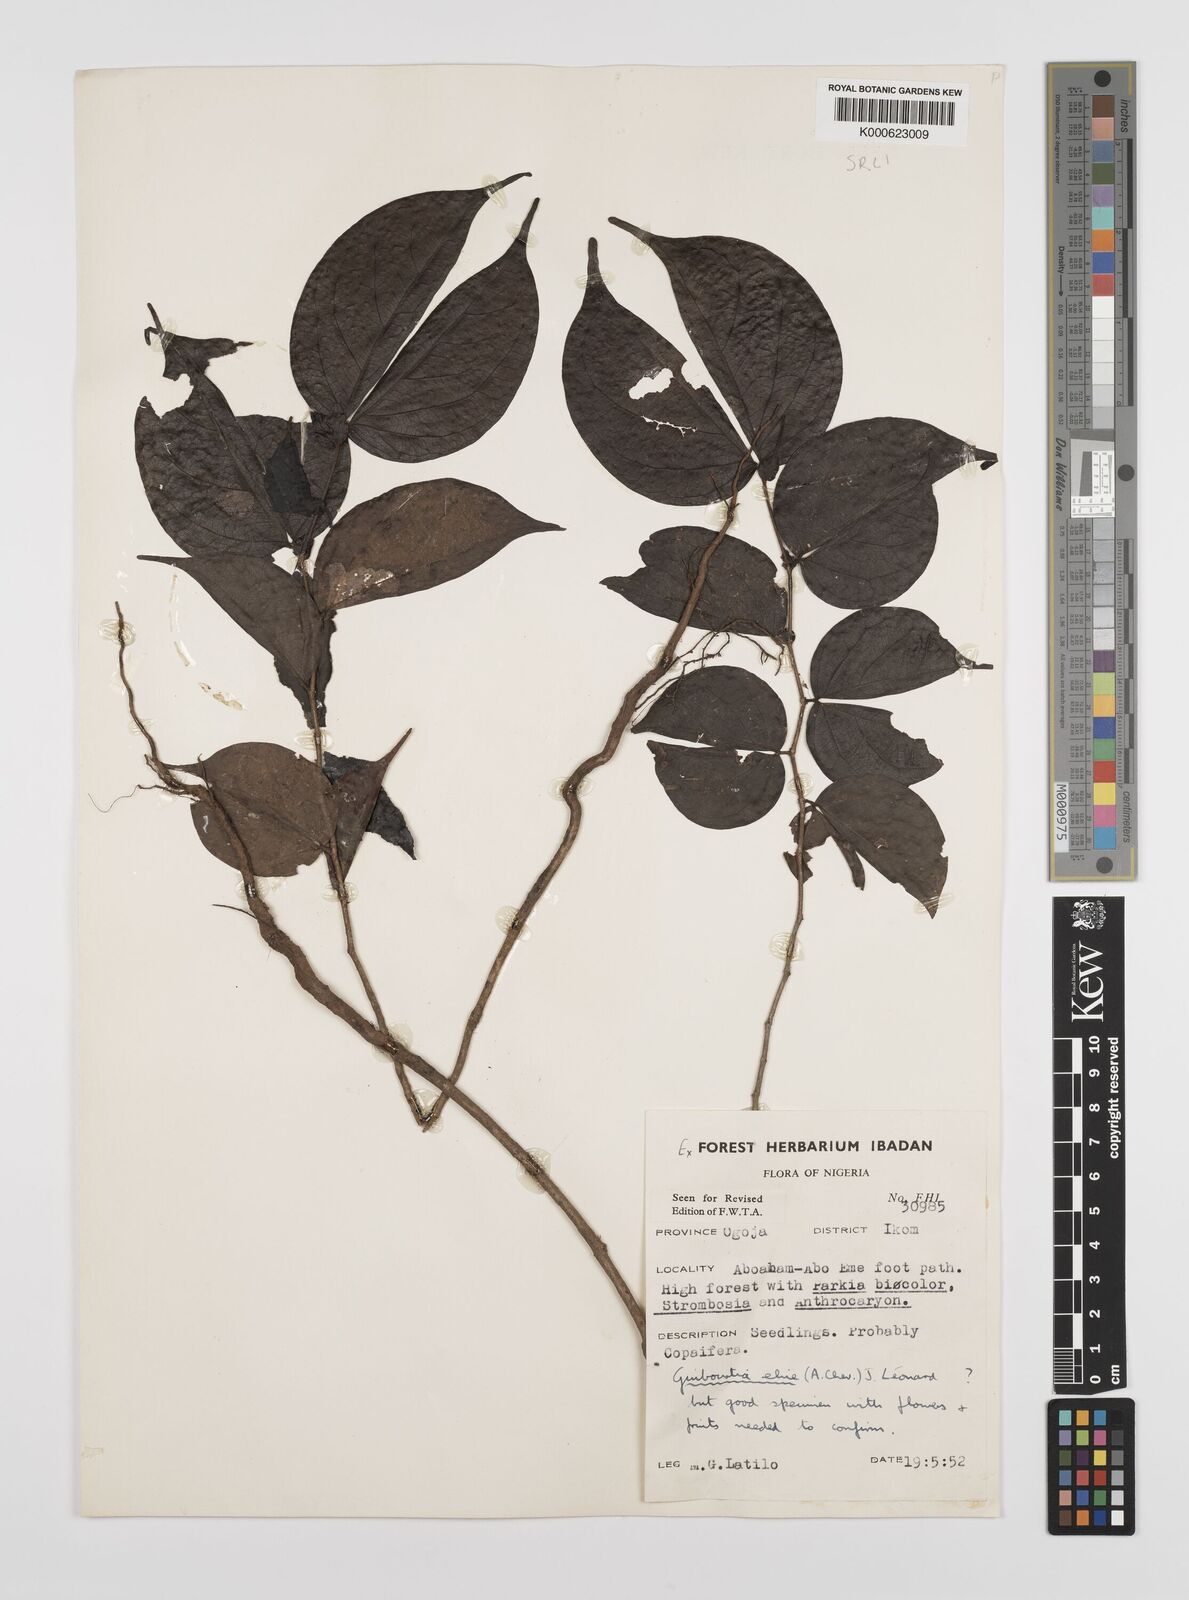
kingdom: Plantae
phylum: Tracheophyta
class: Magnoliopsida
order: Fabales
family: Fabaceae
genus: Guibourtia
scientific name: Guibourtia ehie
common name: Black hyedua
